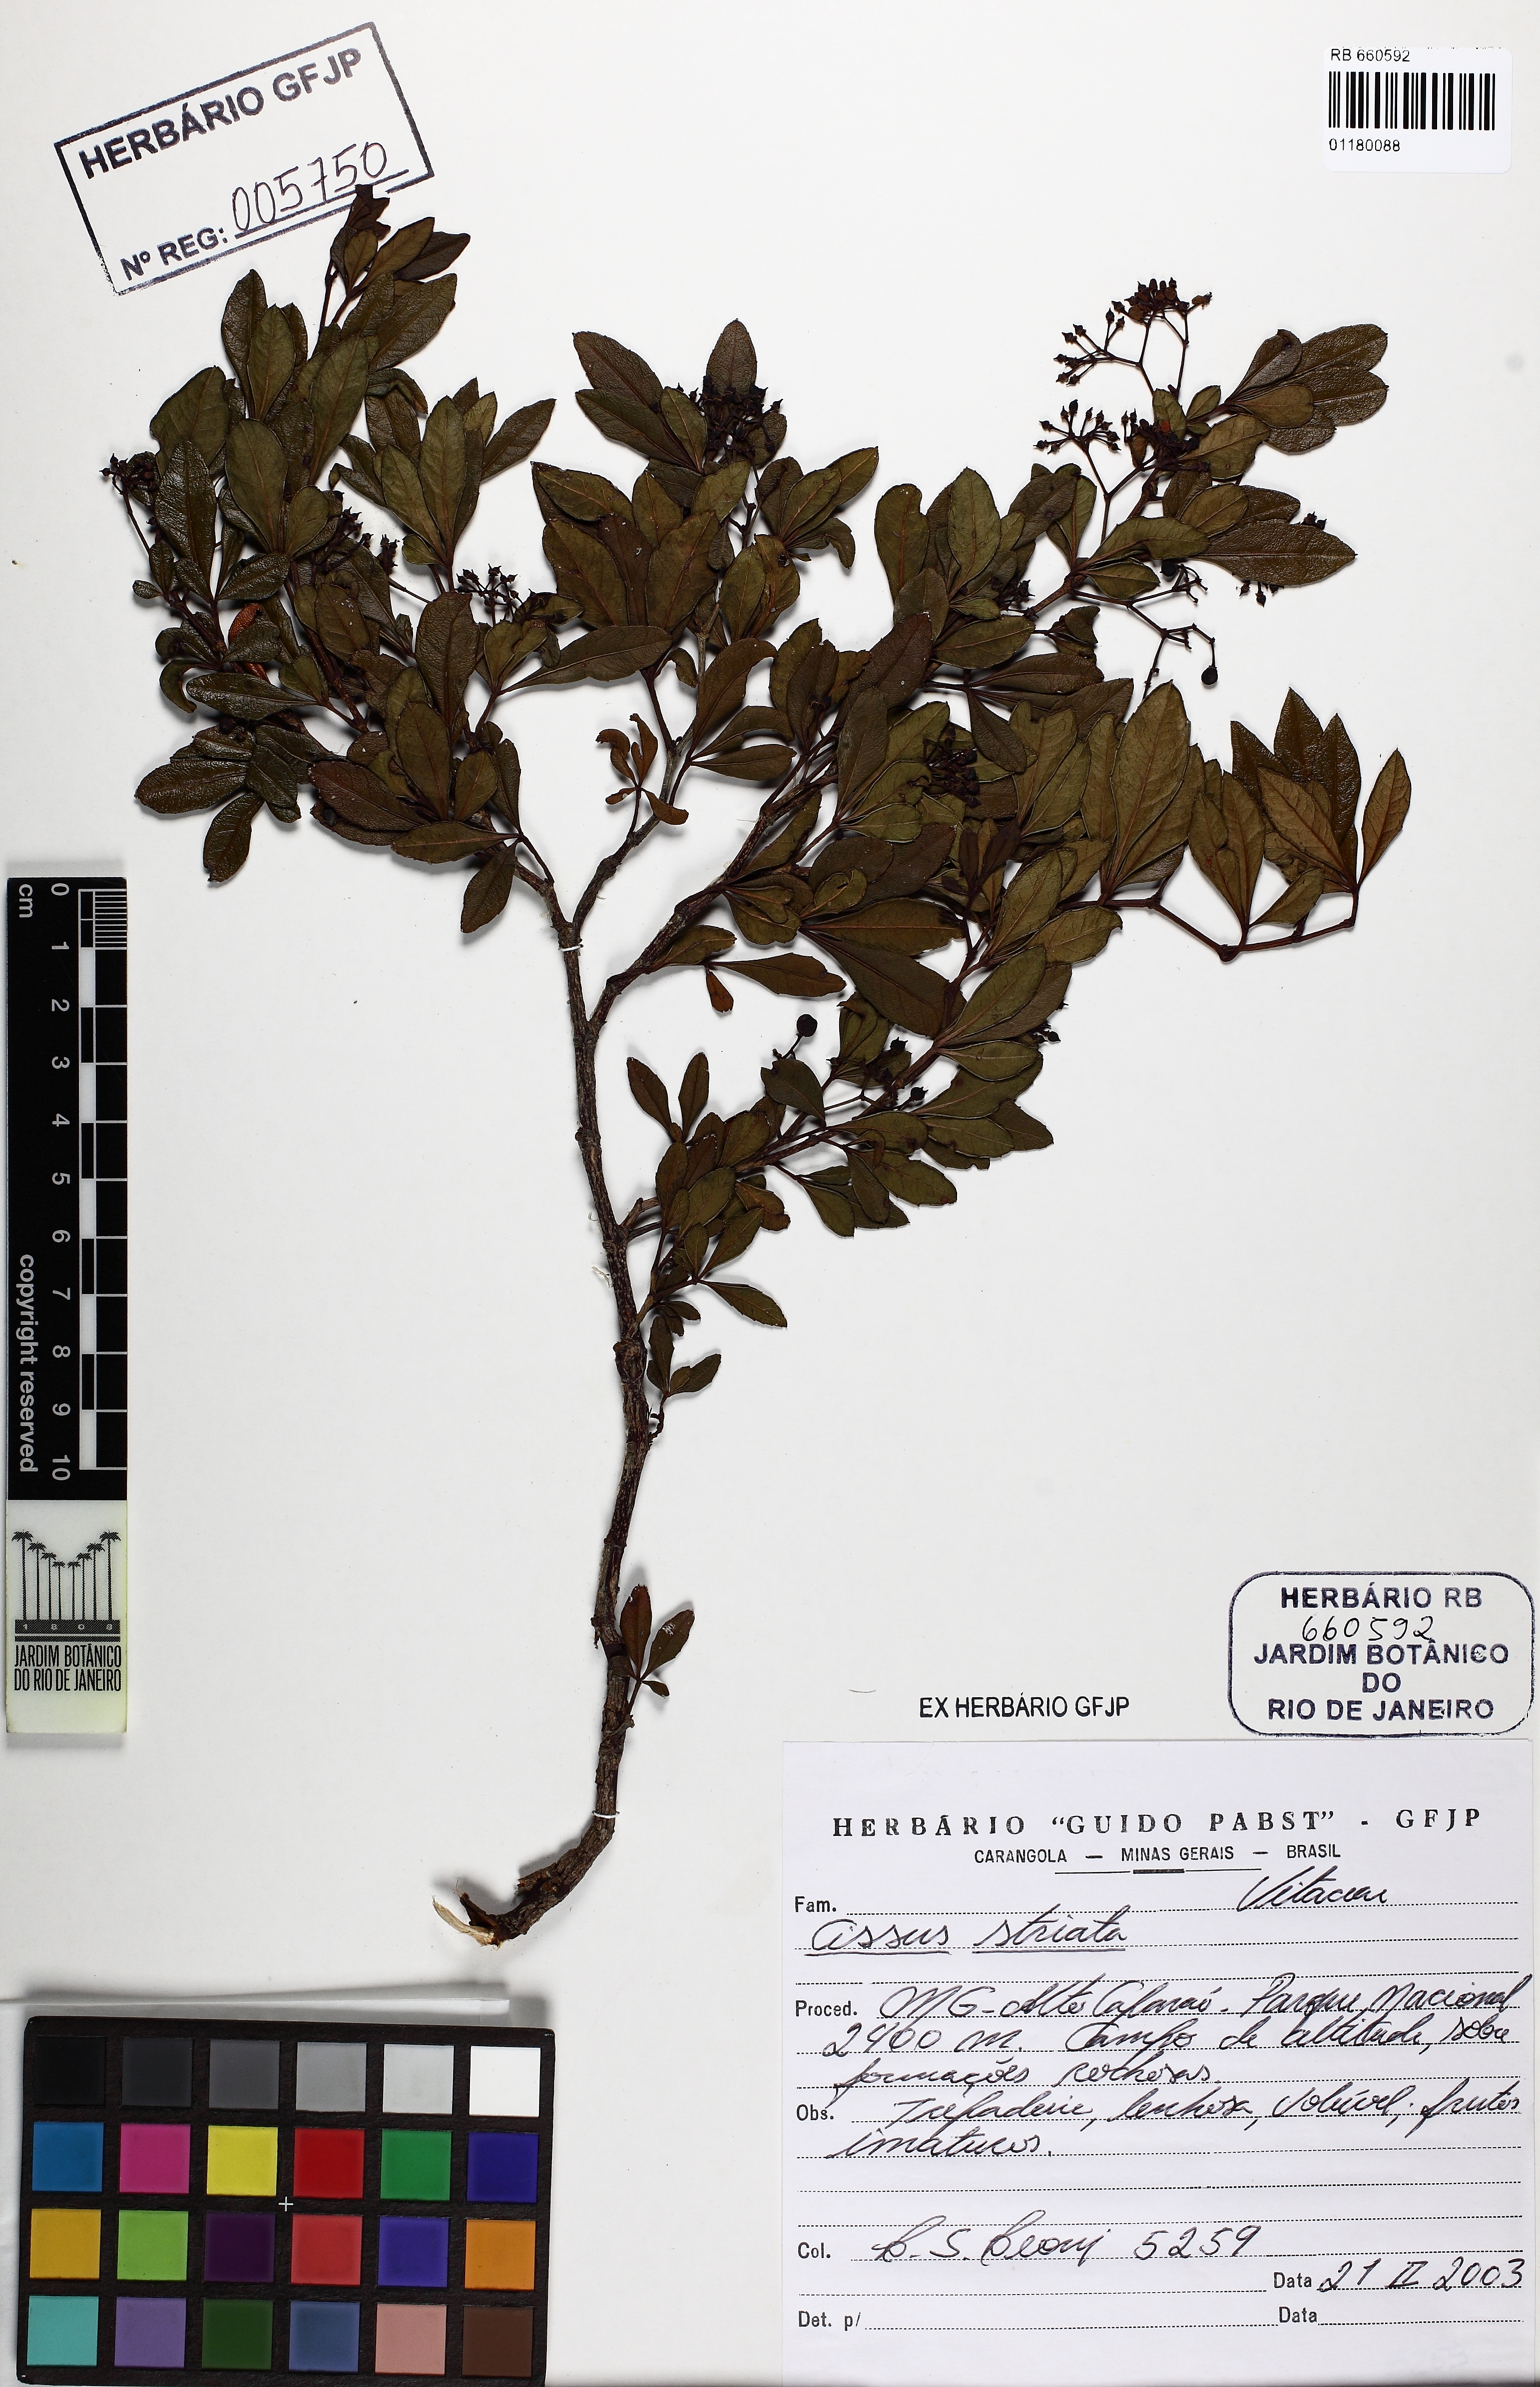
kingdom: Plantae
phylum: Tracheophyta
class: Magnoliopsida
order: Vitales
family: Vitaceae
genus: Clematicissus
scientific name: Clematicissus striata
